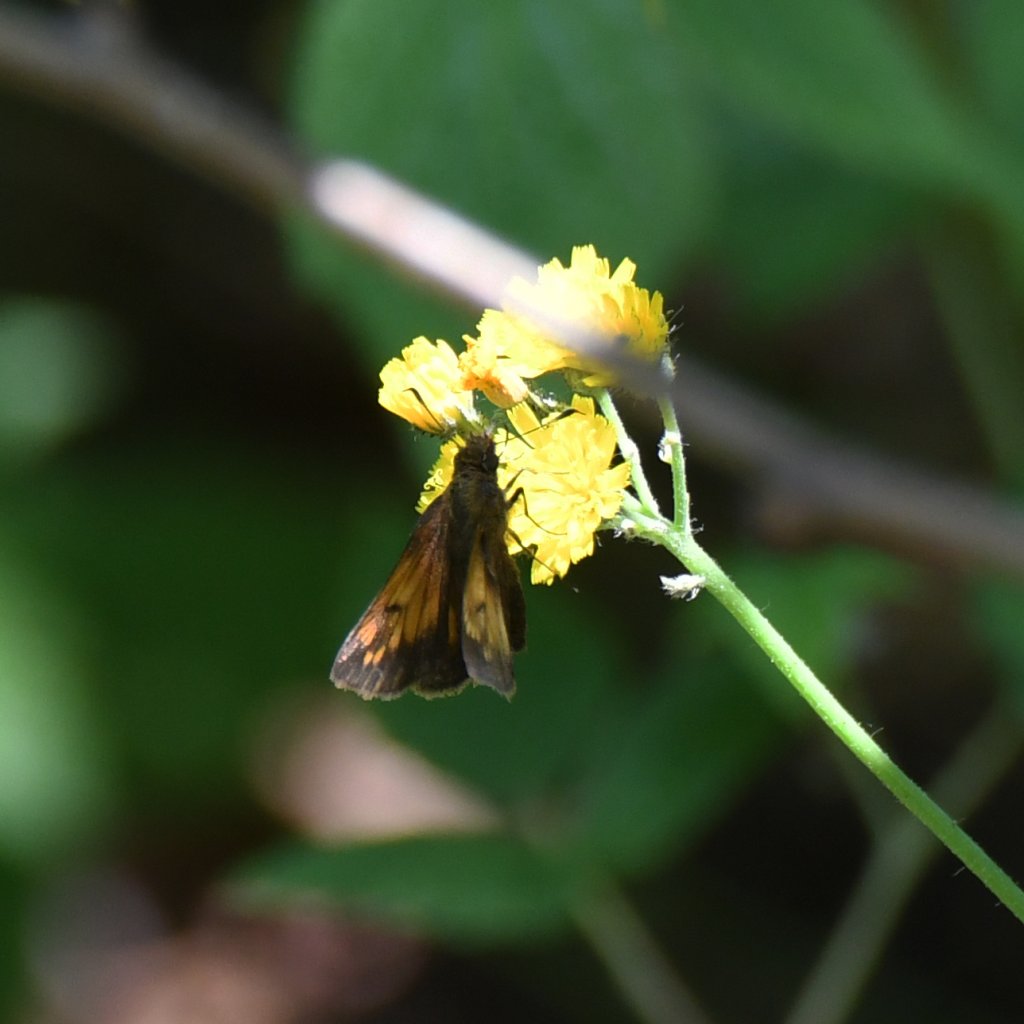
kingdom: Animalia
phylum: Arthropoda
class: Insecta
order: Lepidoptera
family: Hesperiidae
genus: Lon
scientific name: Lon hobomok
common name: Hobomok Skipper
